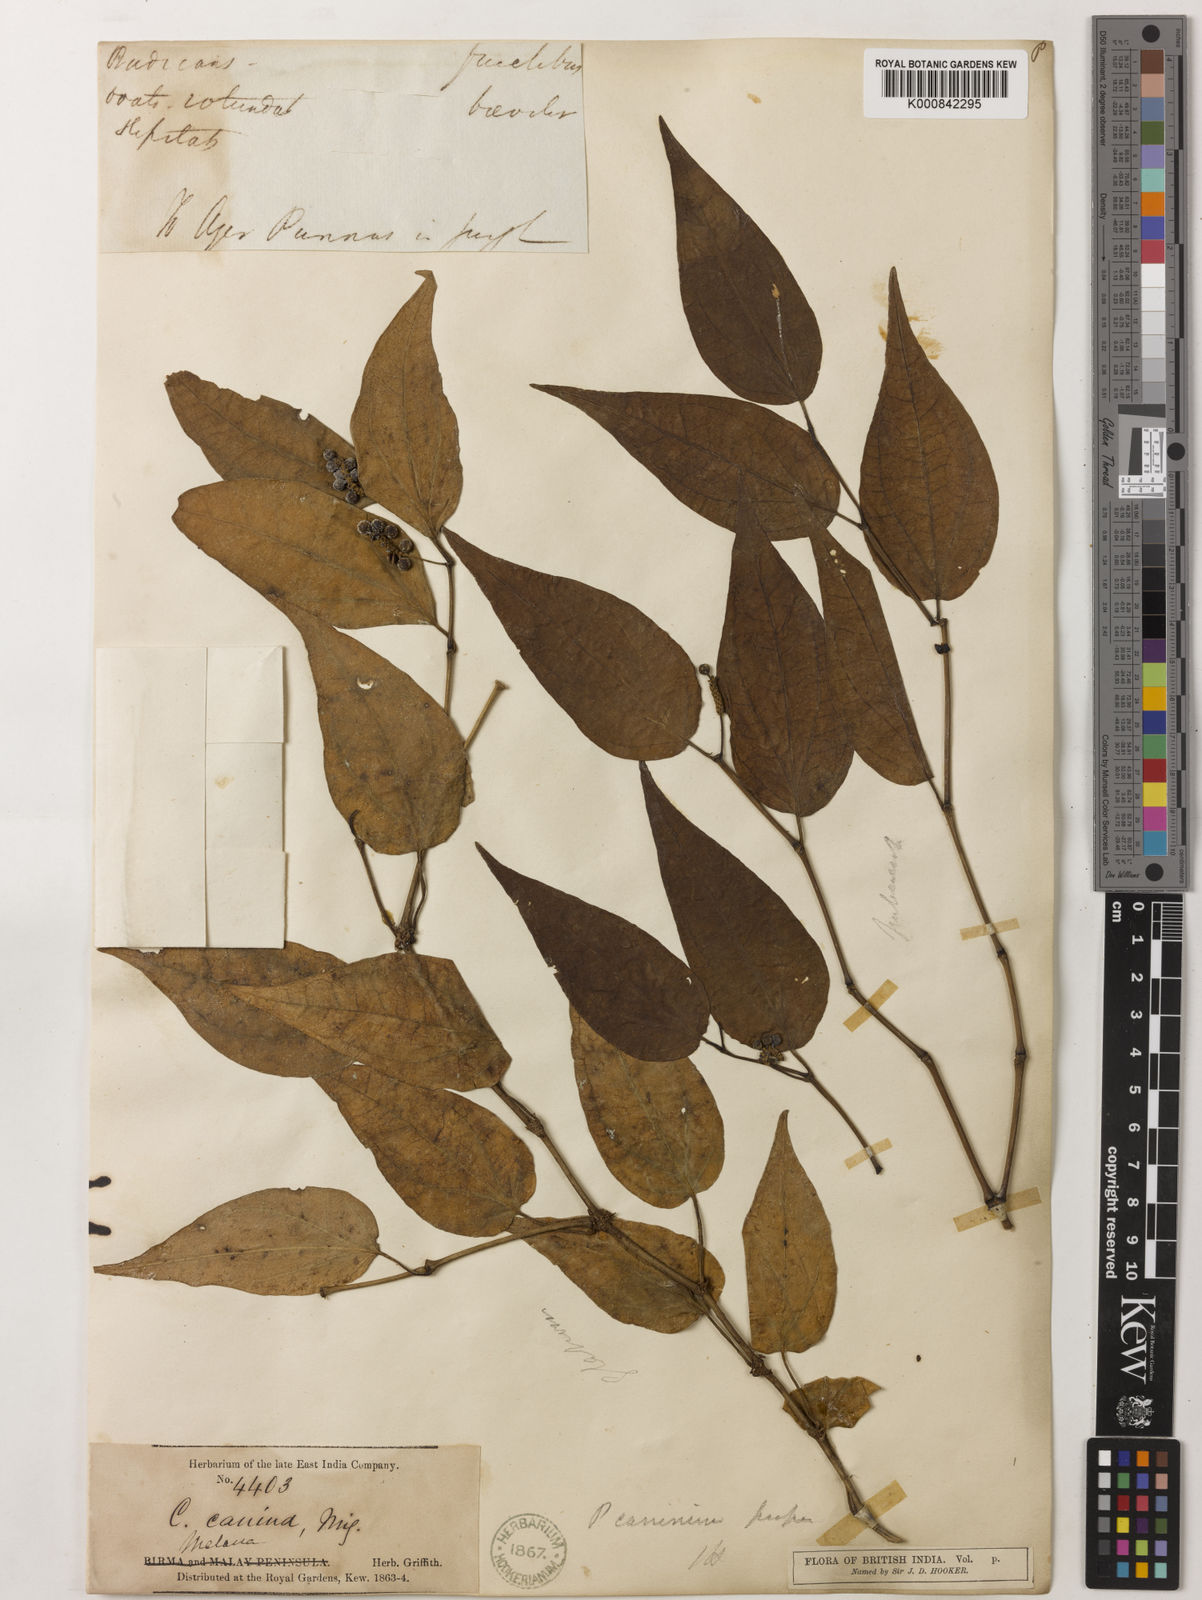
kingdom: Plantae
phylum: Tracheophyta
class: Magnoliopsida
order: Piperales
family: Piperaceae
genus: Piper
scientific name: Piper lanatum
